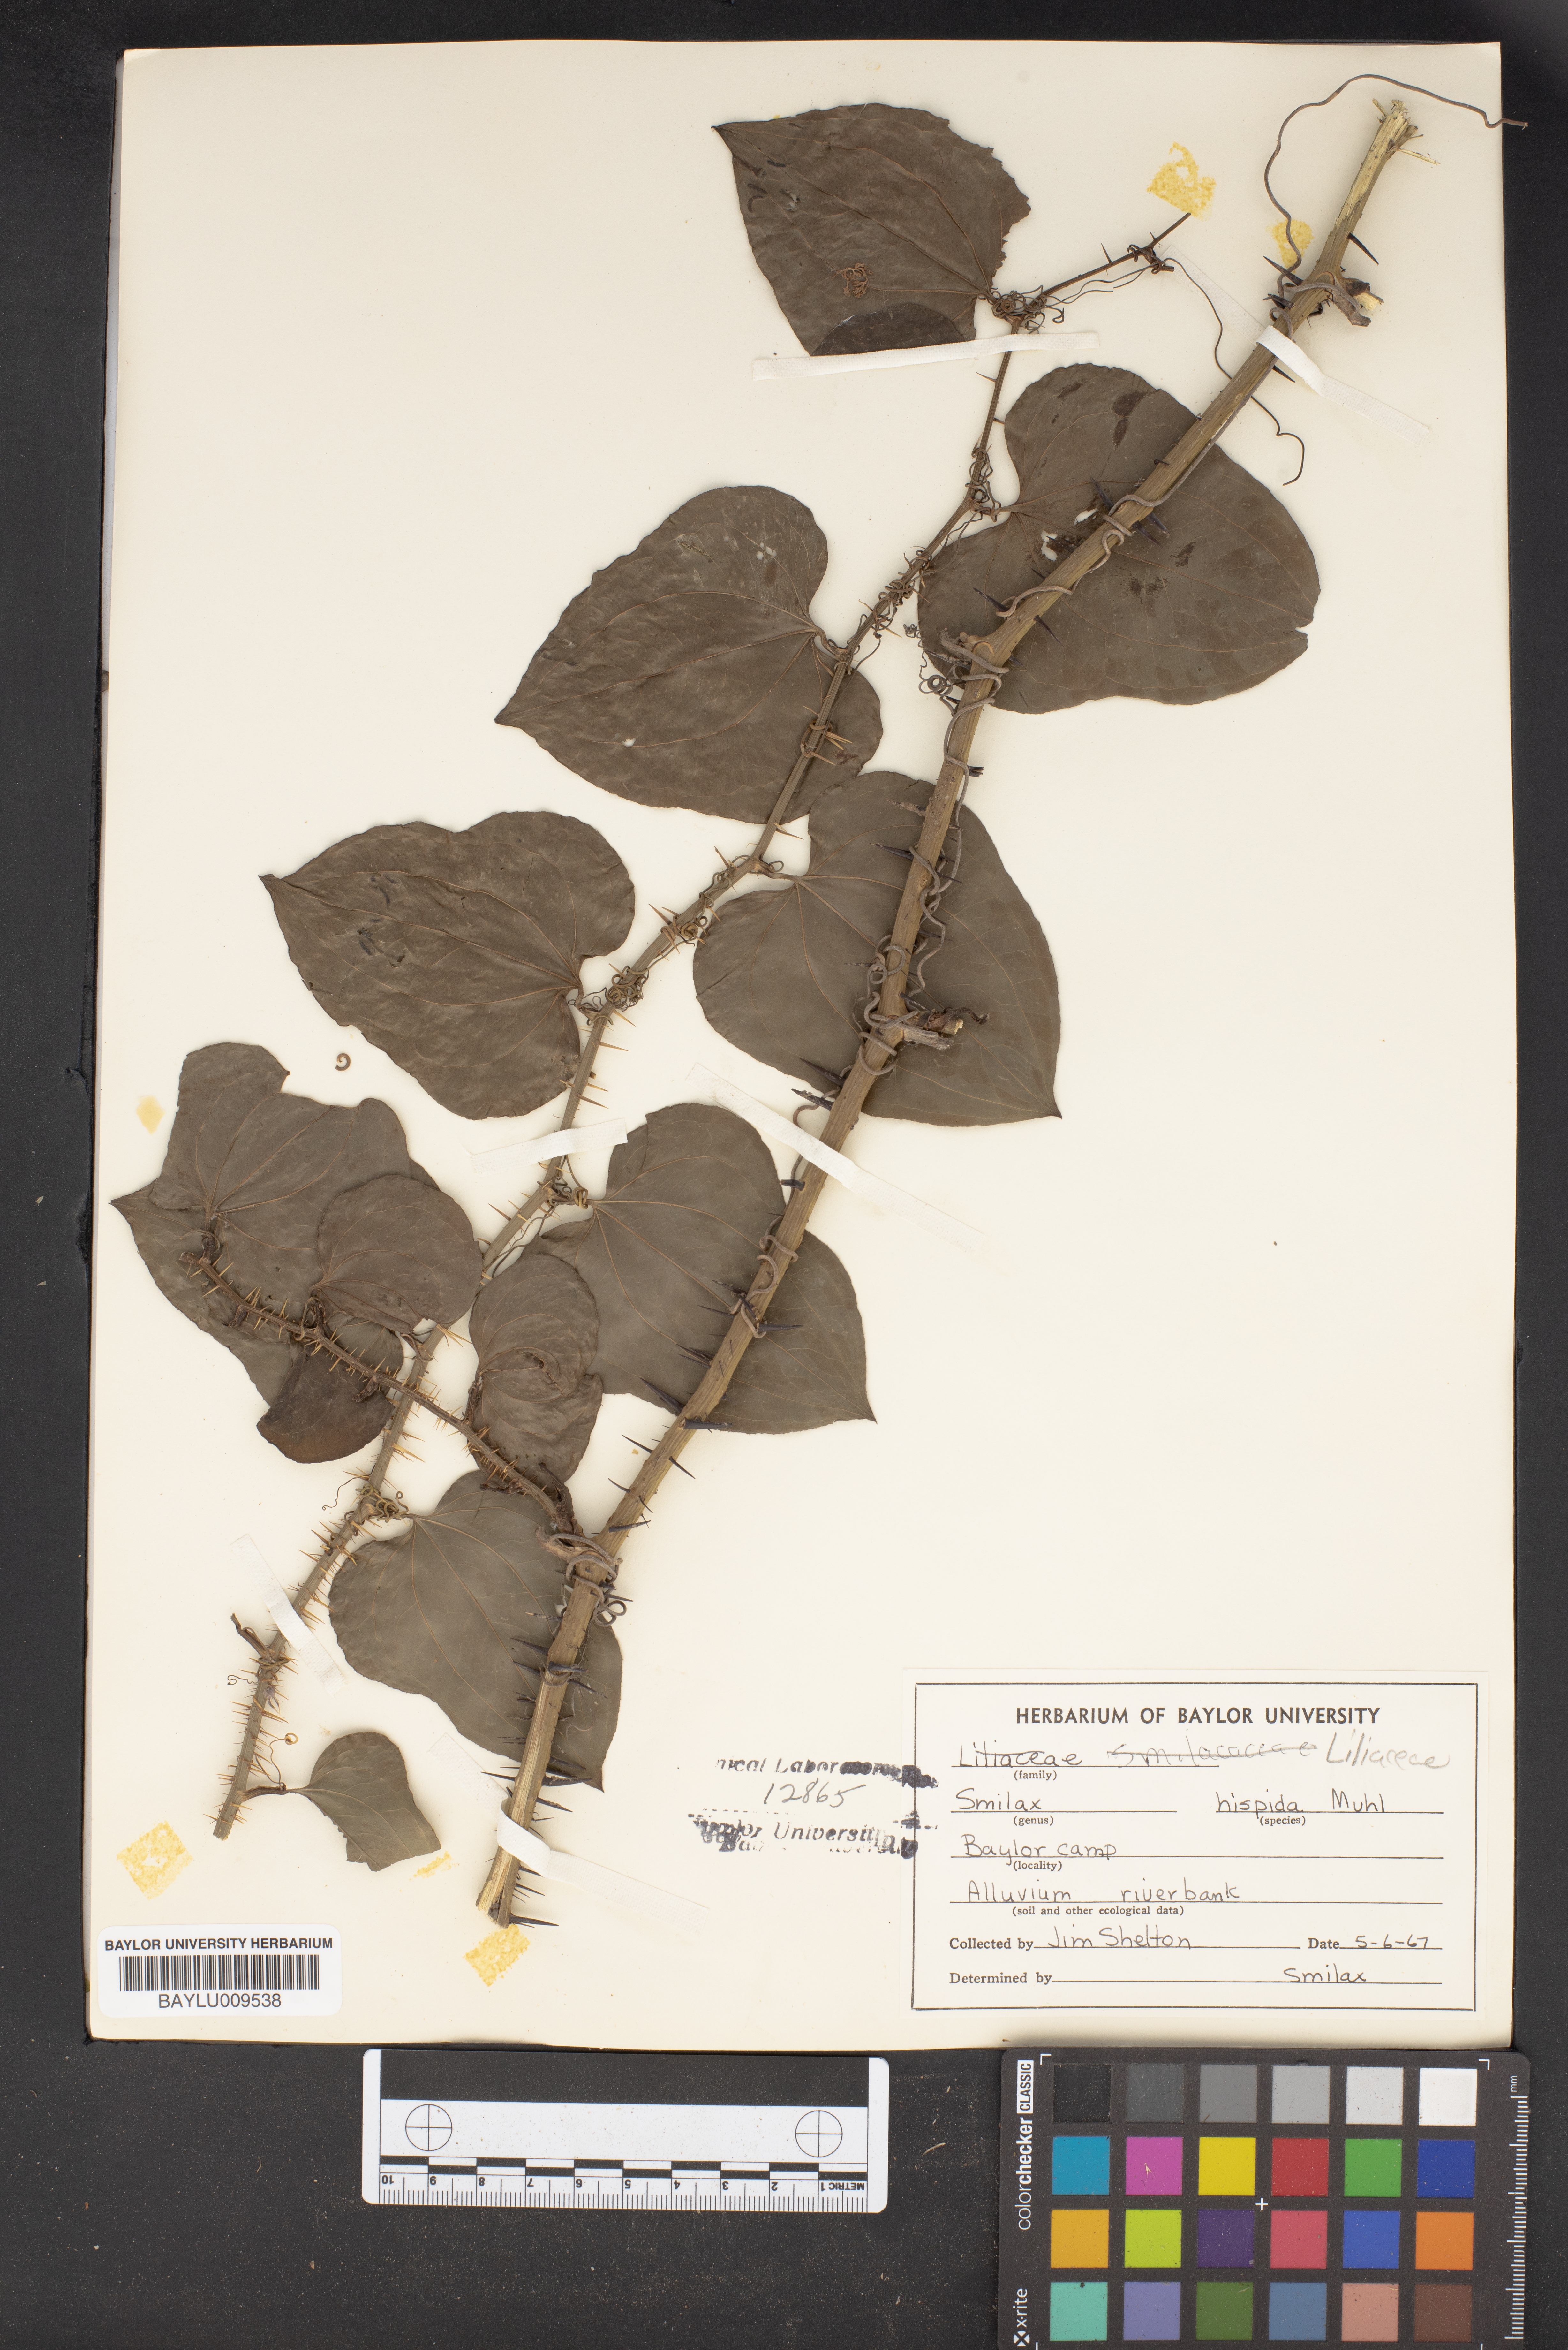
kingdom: Plantae
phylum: Tracheophyta
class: Liliopsida
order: Liliales
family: Smilacaceae
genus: Smilax
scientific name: Smilax tamnoides
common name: Hellfetter
